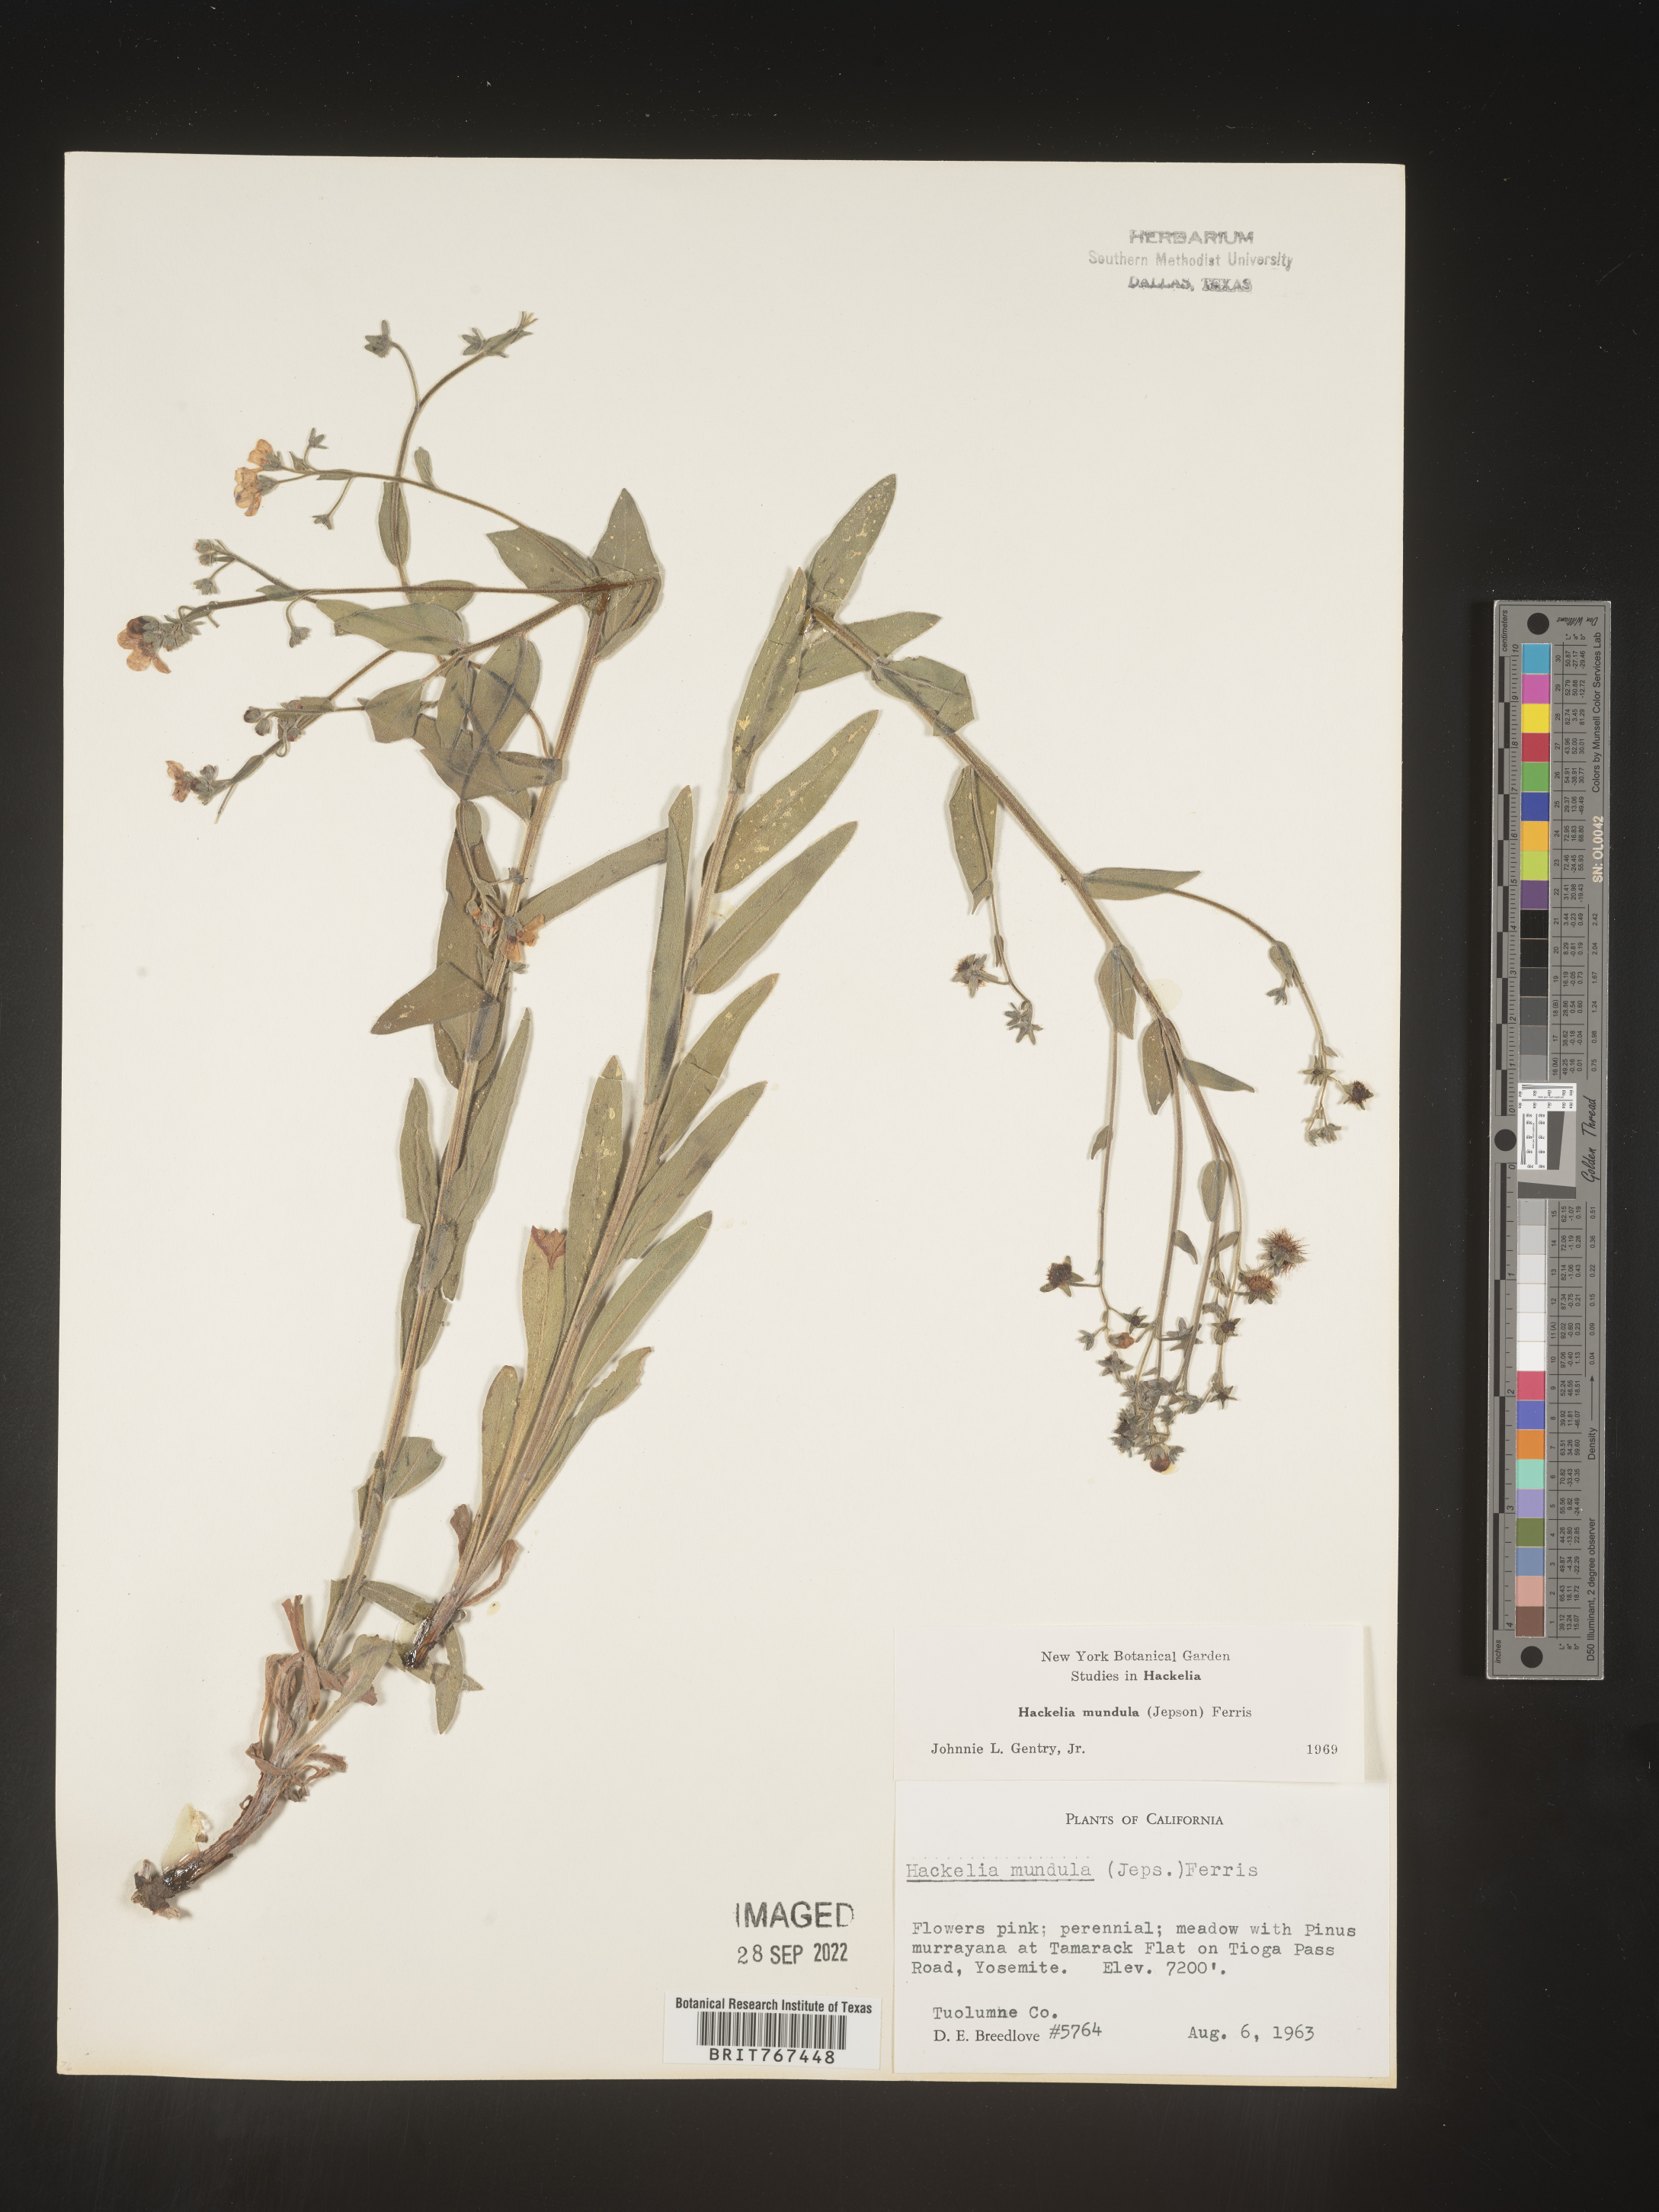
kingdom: Plantae
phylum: Tracheophyta
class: Magnoliopsida
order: Boraginales
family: Boraginaceae
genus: Hackelia
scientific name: Hackelia
